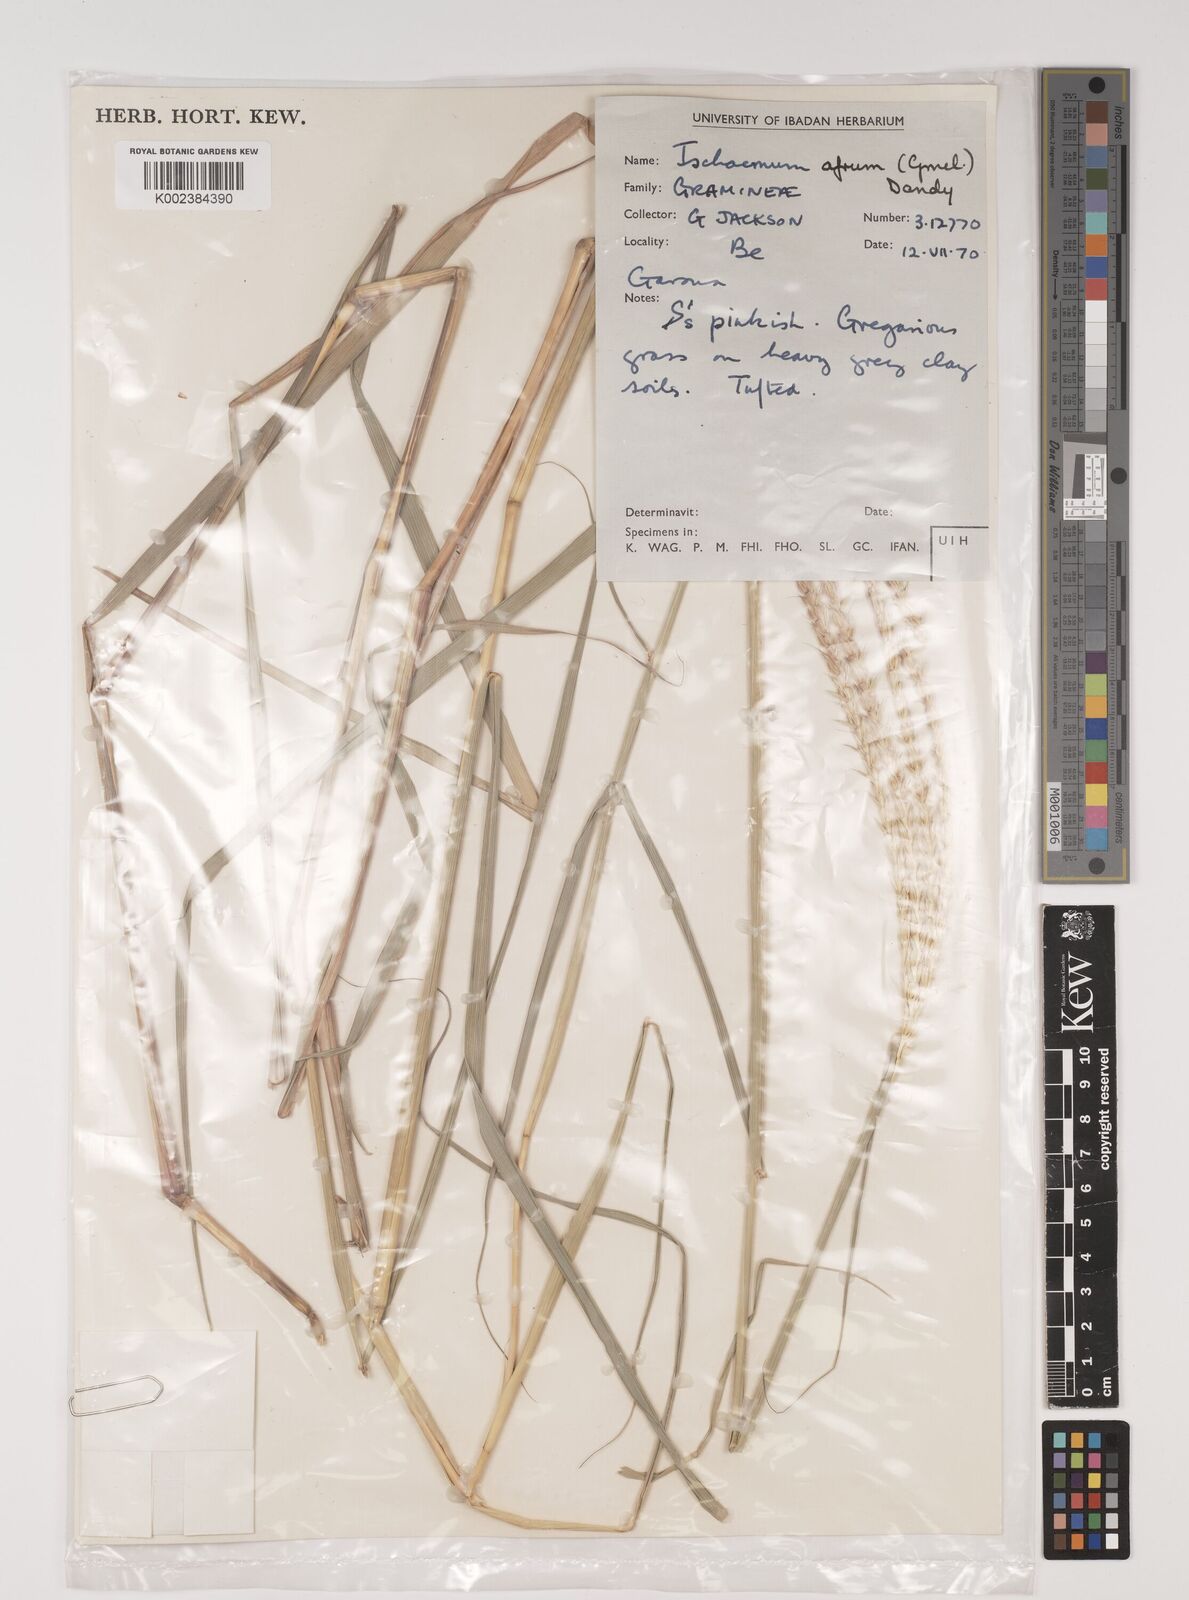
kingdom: Plantae
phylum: Tracheophyta
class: Liliopsida
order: Poales
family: Poaceae
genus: Ischaemum
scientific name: Ischaemum afrum
